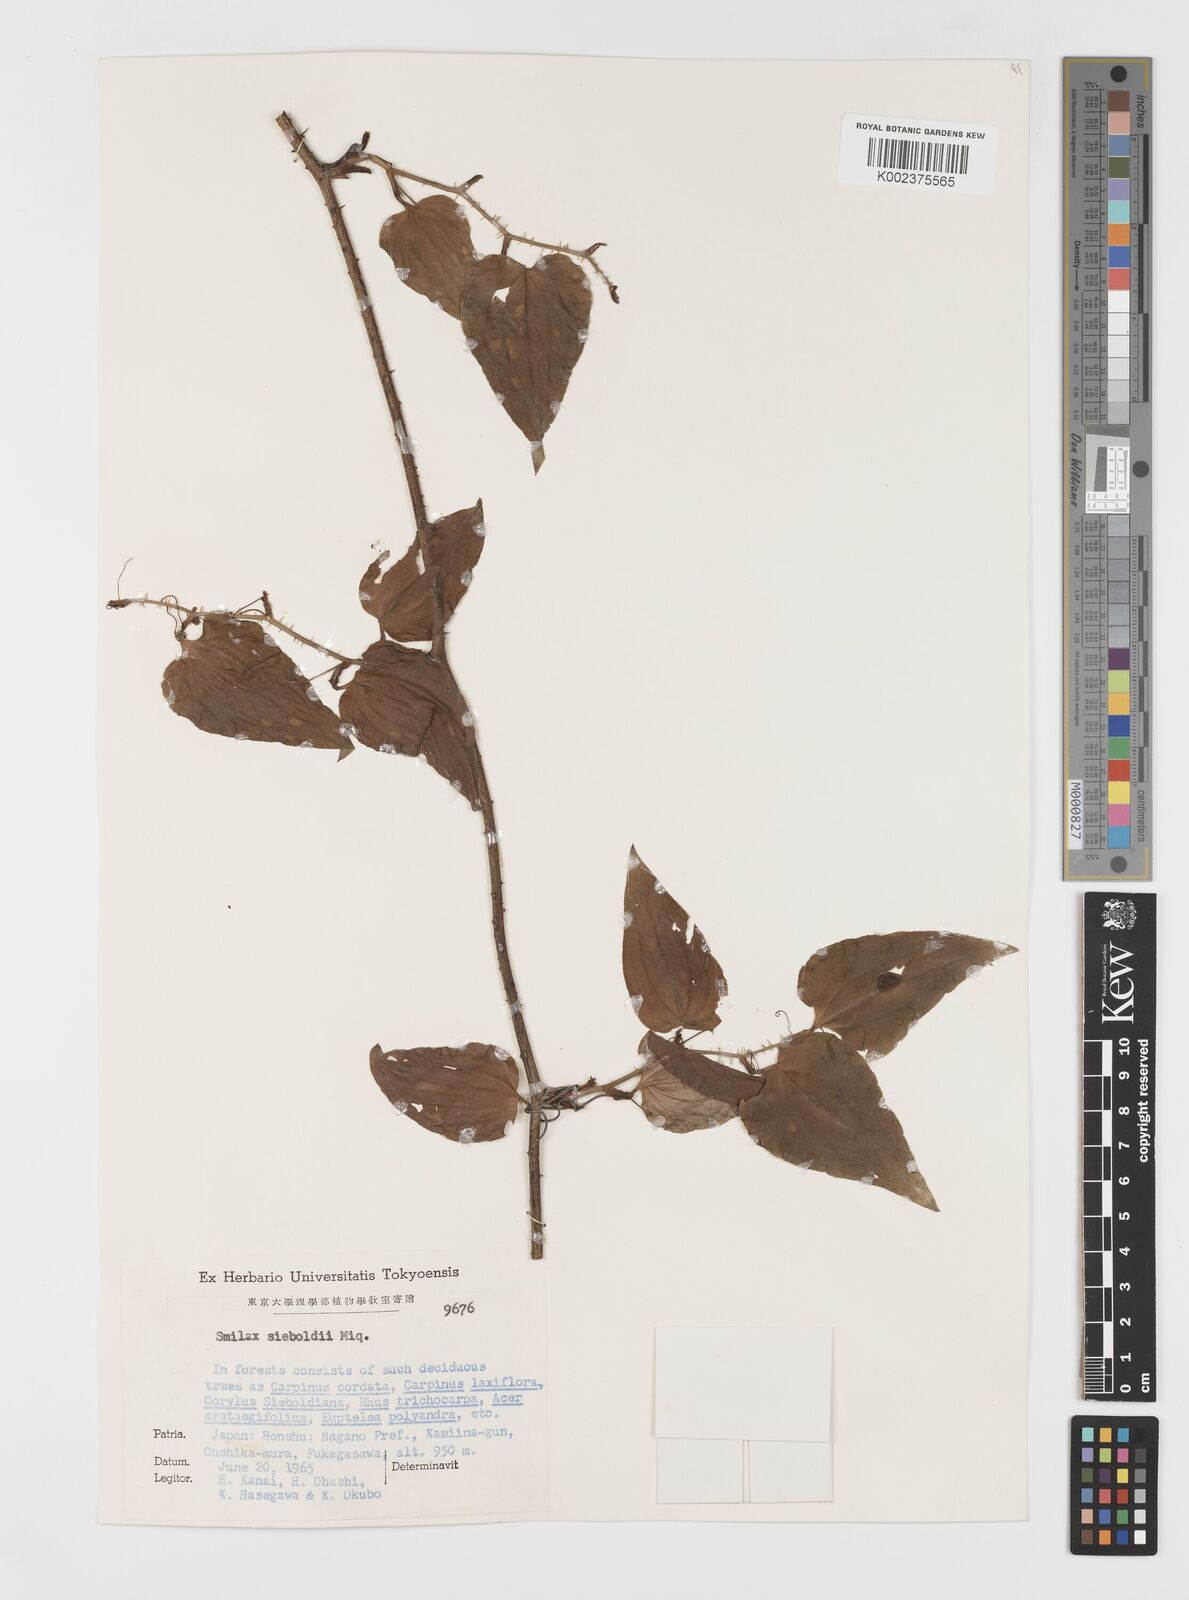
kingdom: Plantae
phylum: Tracheophyta
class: Liliopsida
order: Liliales
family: Smilacaceae
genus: Smilax
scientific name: Smilax sieboldii
